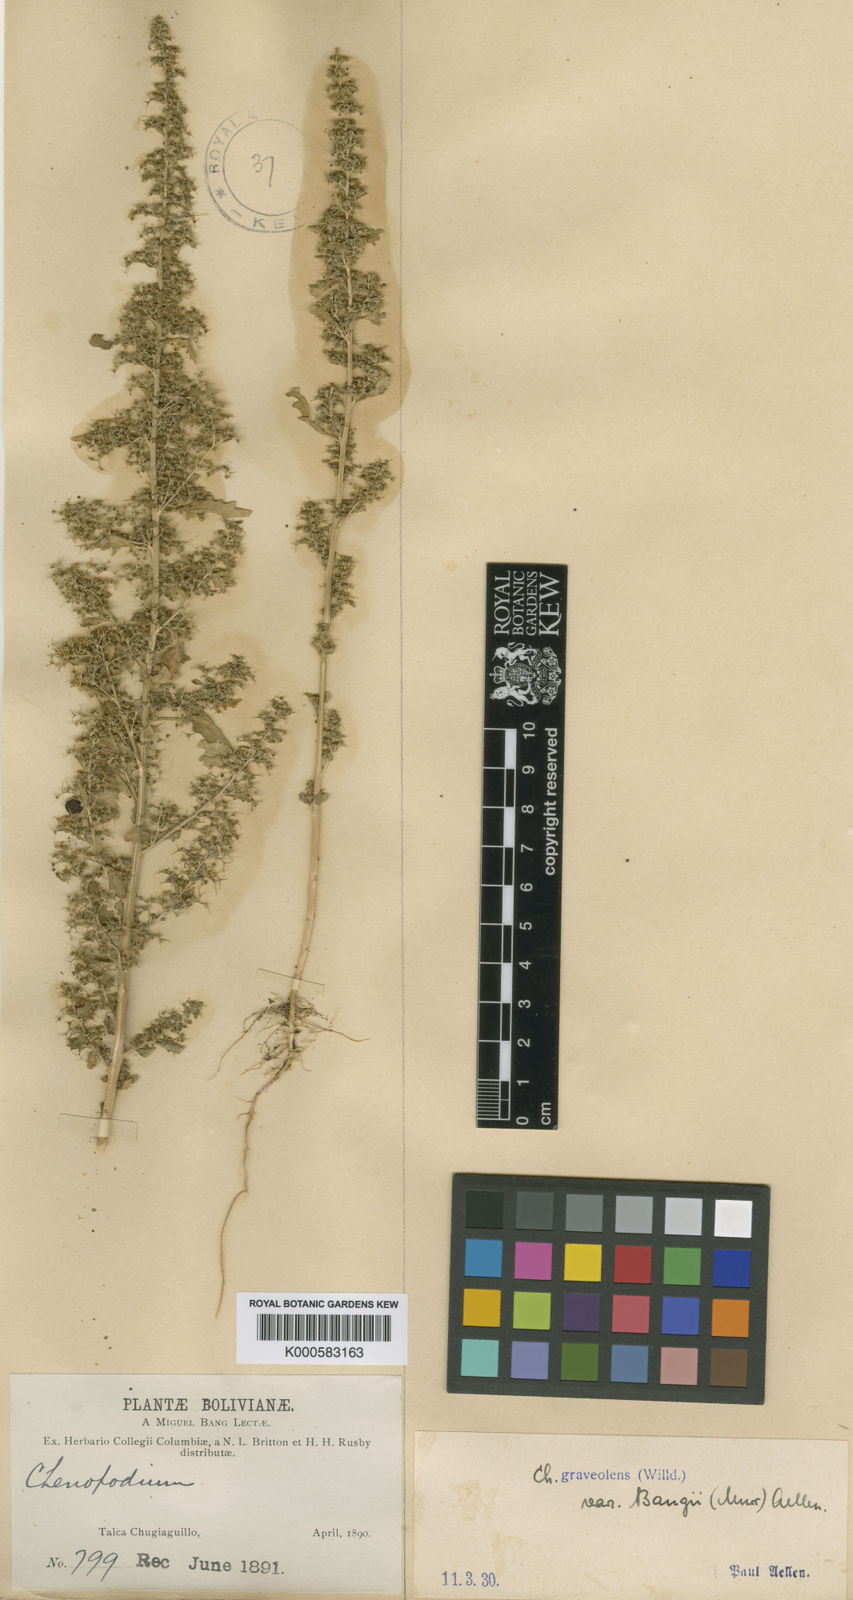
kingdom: Plantae
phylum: Tracheophyta
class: Magnoliopsida
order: Caryophyllales
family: Amaranthaceae
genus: Dysphania
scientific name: Dysphania graveolens
